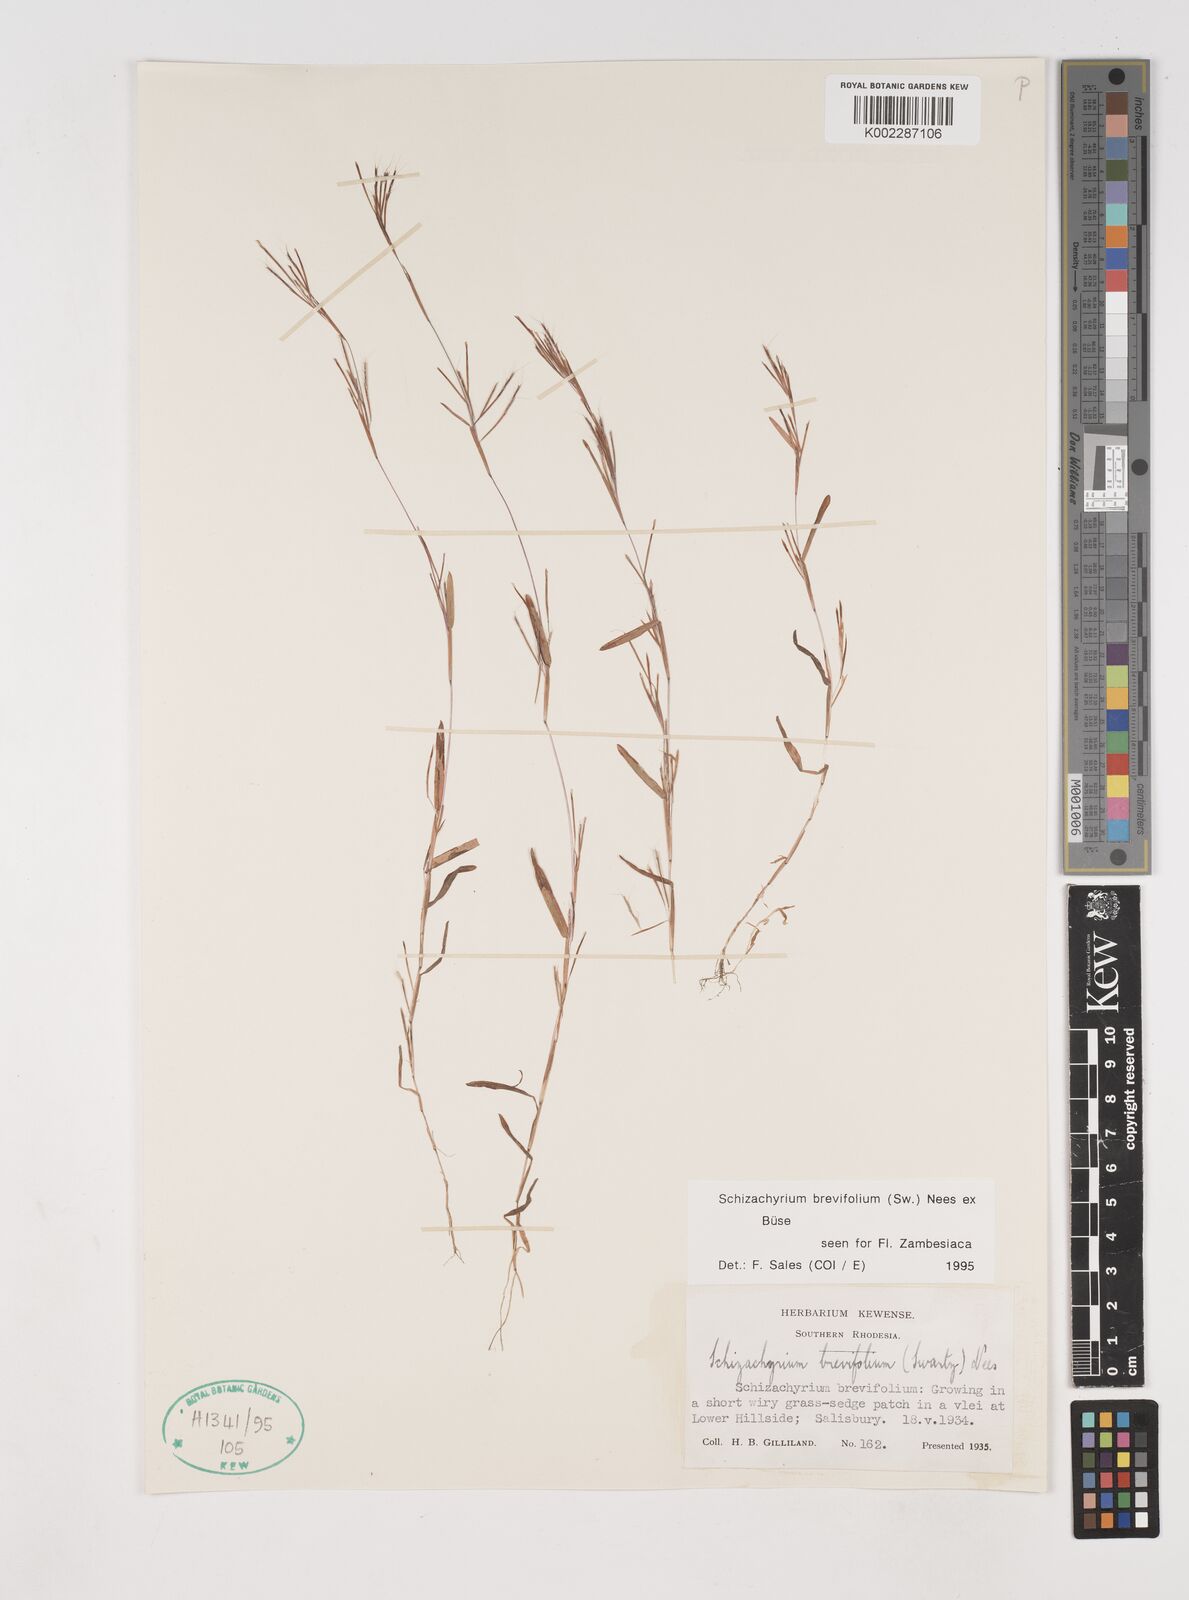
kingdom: Plantae
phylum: Tracheophyta
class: Liliopsida
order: Poales
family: Poaceae
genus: Schizachyrium
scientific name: Schizachyrium brevifolium
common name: Serillo dulce
